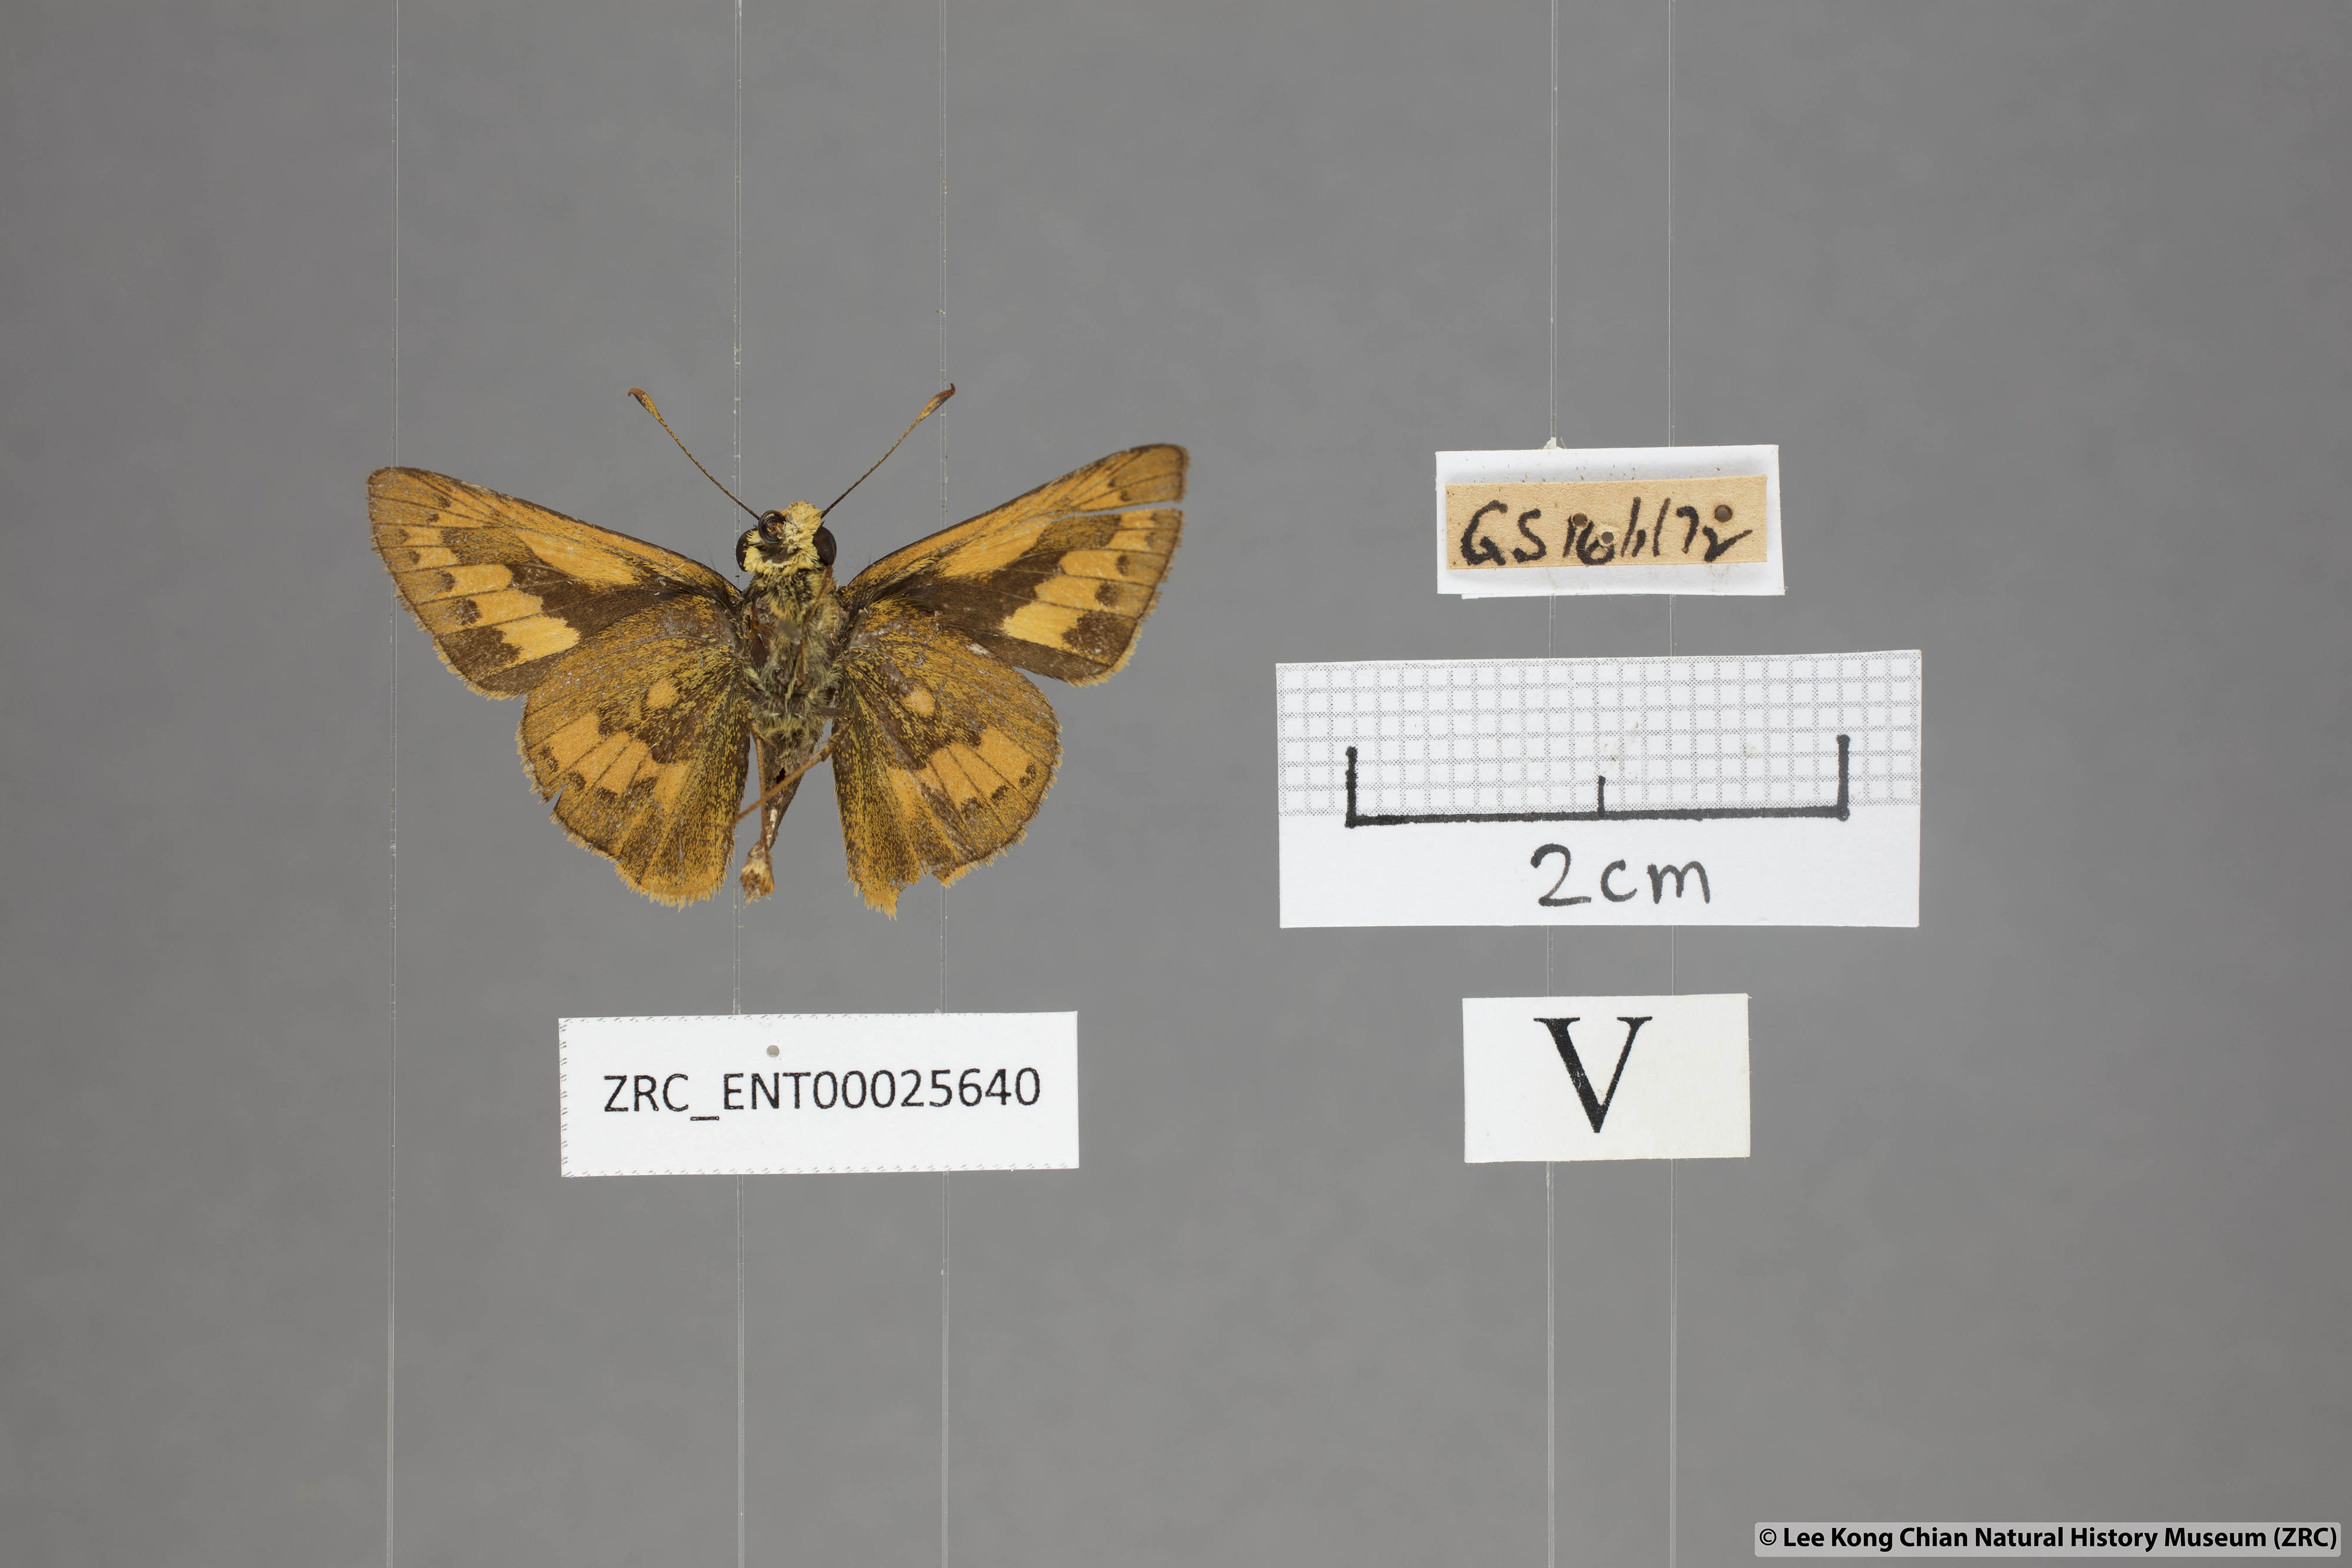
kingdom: Animalia
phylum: Arthropoda
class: Insecta
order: Lepidoptera
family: Hesperiidae
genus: Telicota
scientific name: Telicota besta
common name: Hainan palm dart
